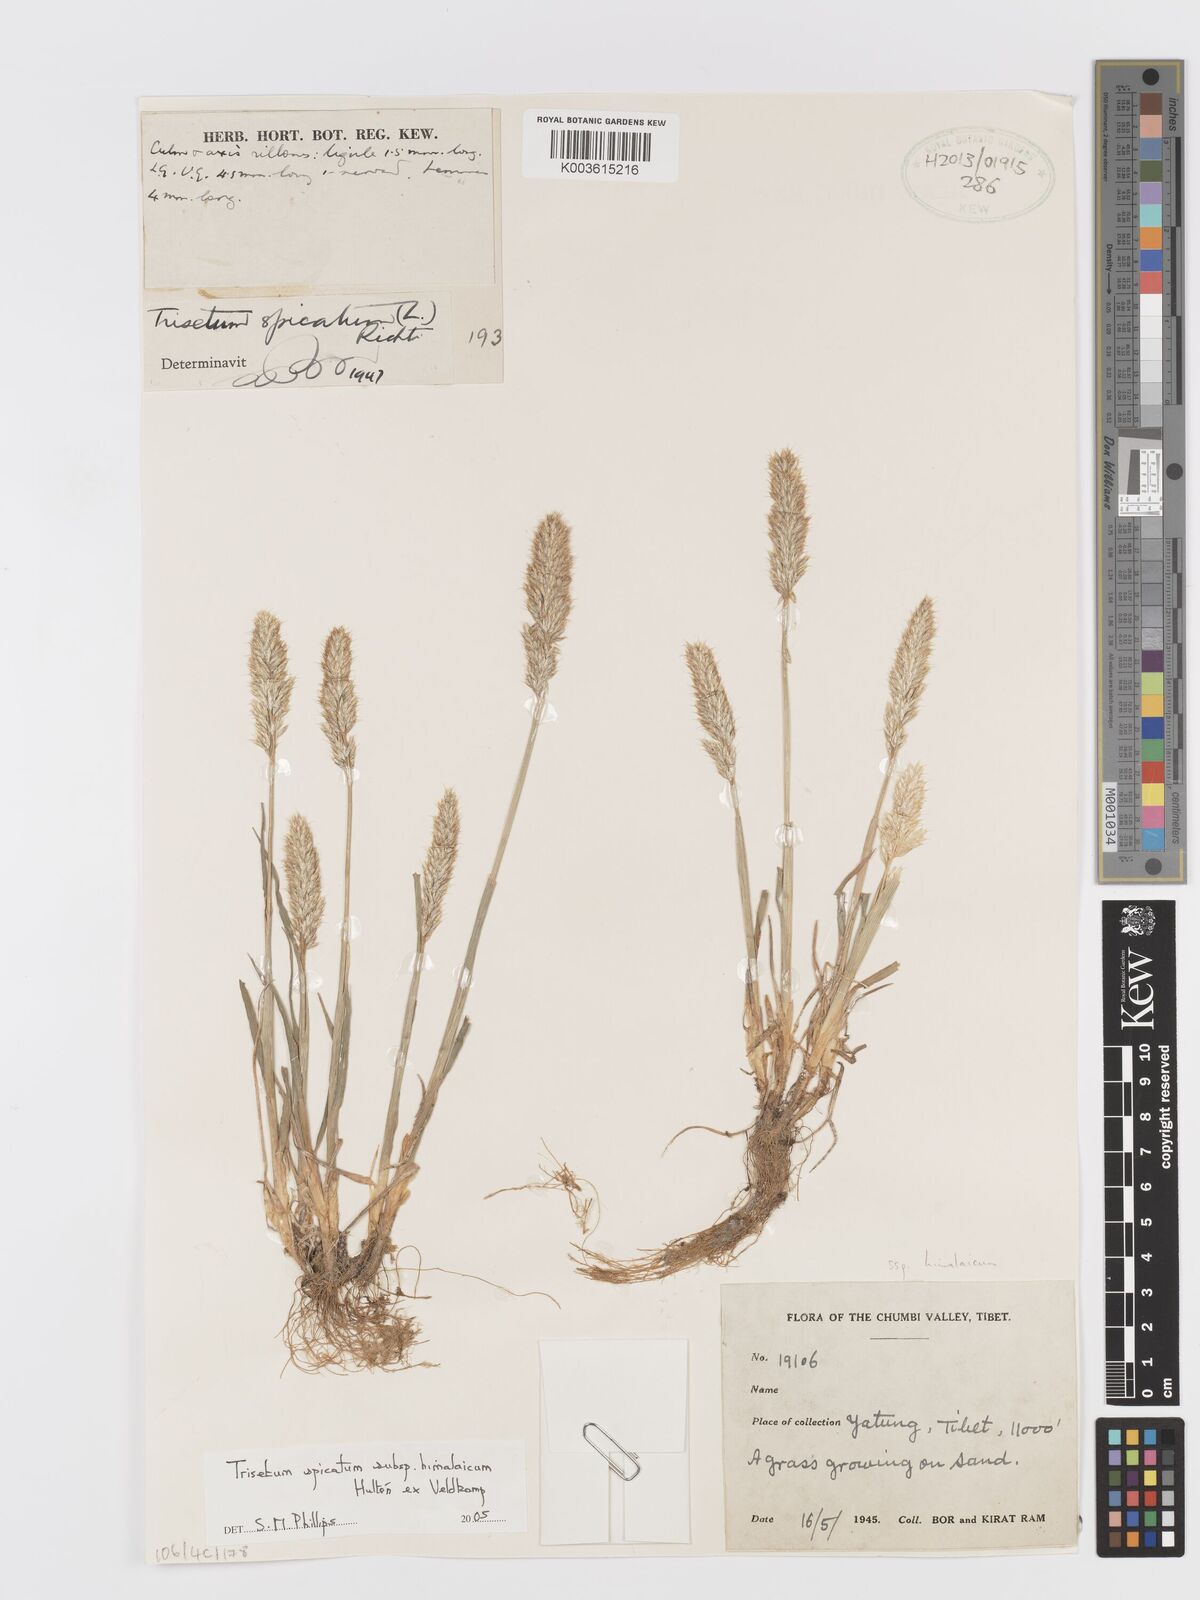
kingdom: Plantae
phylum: Tracheophyta
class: Liliopsida
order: Poales
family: Poaceae
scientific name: Poaceae
